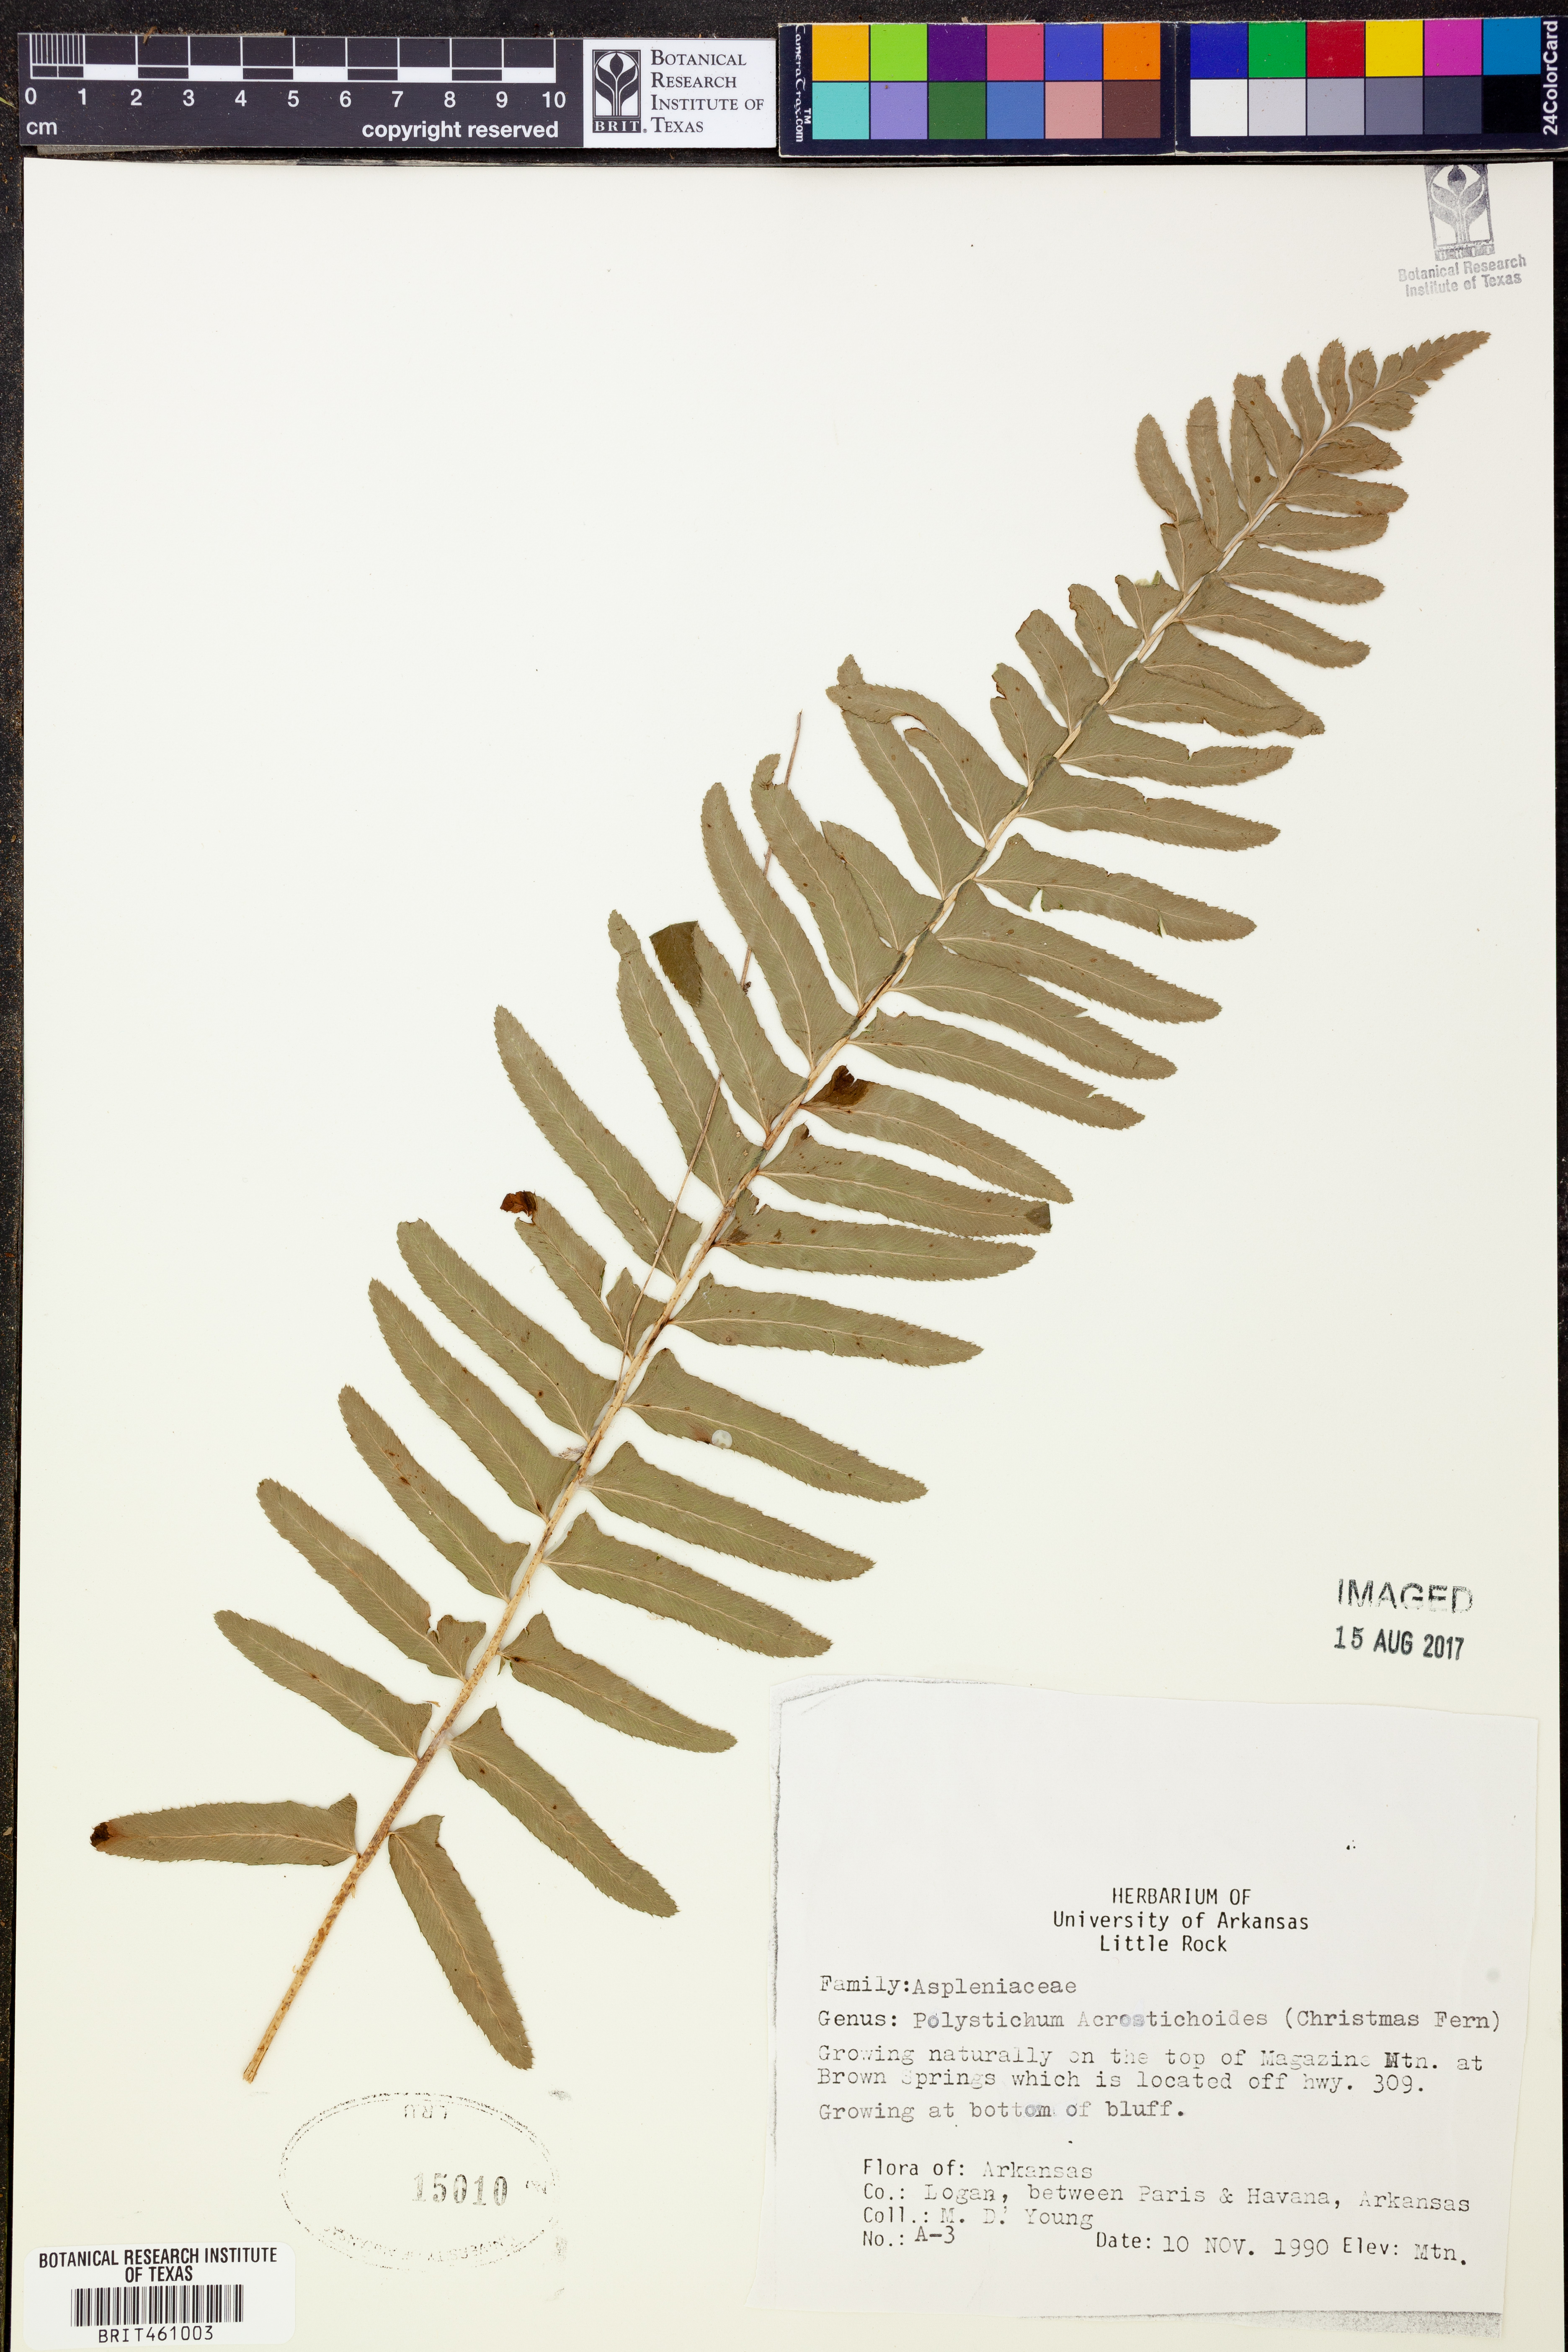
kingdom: Plantae
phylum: Tracheophyta
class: Polypodiopsida
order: Polypodiales
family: Dryopteridaceae
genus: Polystichum
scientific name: Polystichum acrostichoides
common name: Christmas fern
